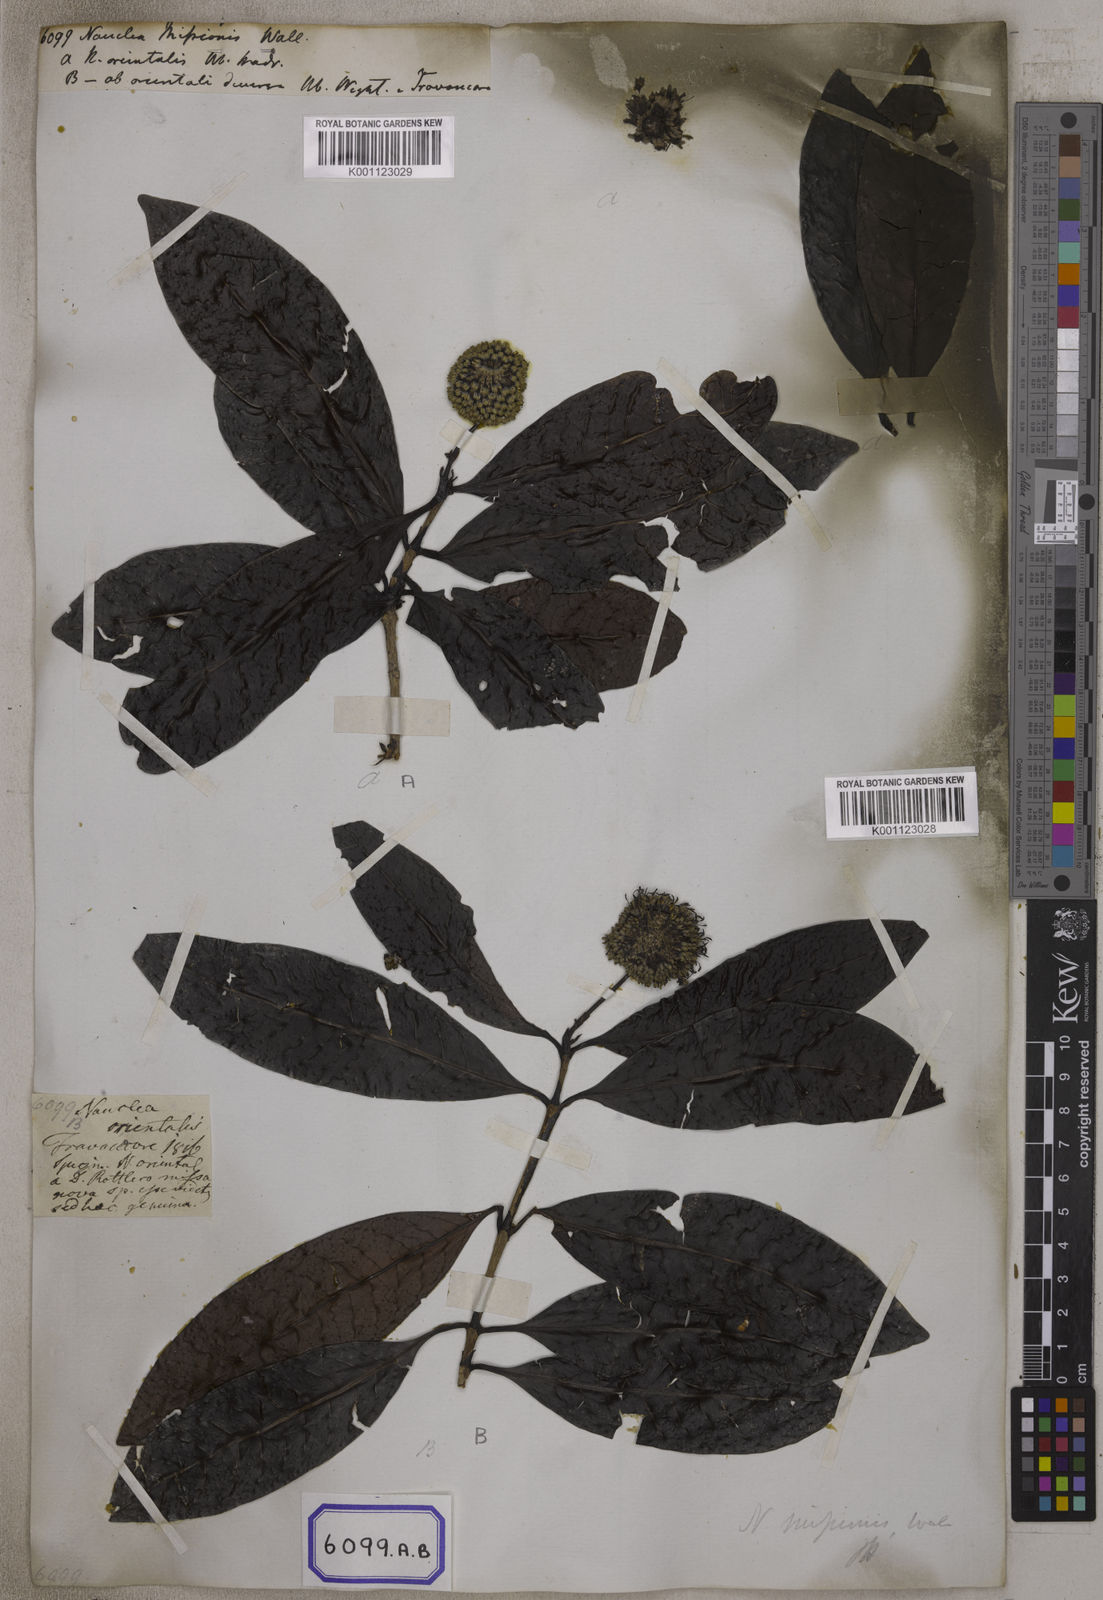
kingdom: Plantae
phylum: Tracheophyta
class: Magnoliopsida
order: Gentianales
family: Rubiaceae
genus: Nauclea
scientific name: Nauclea
